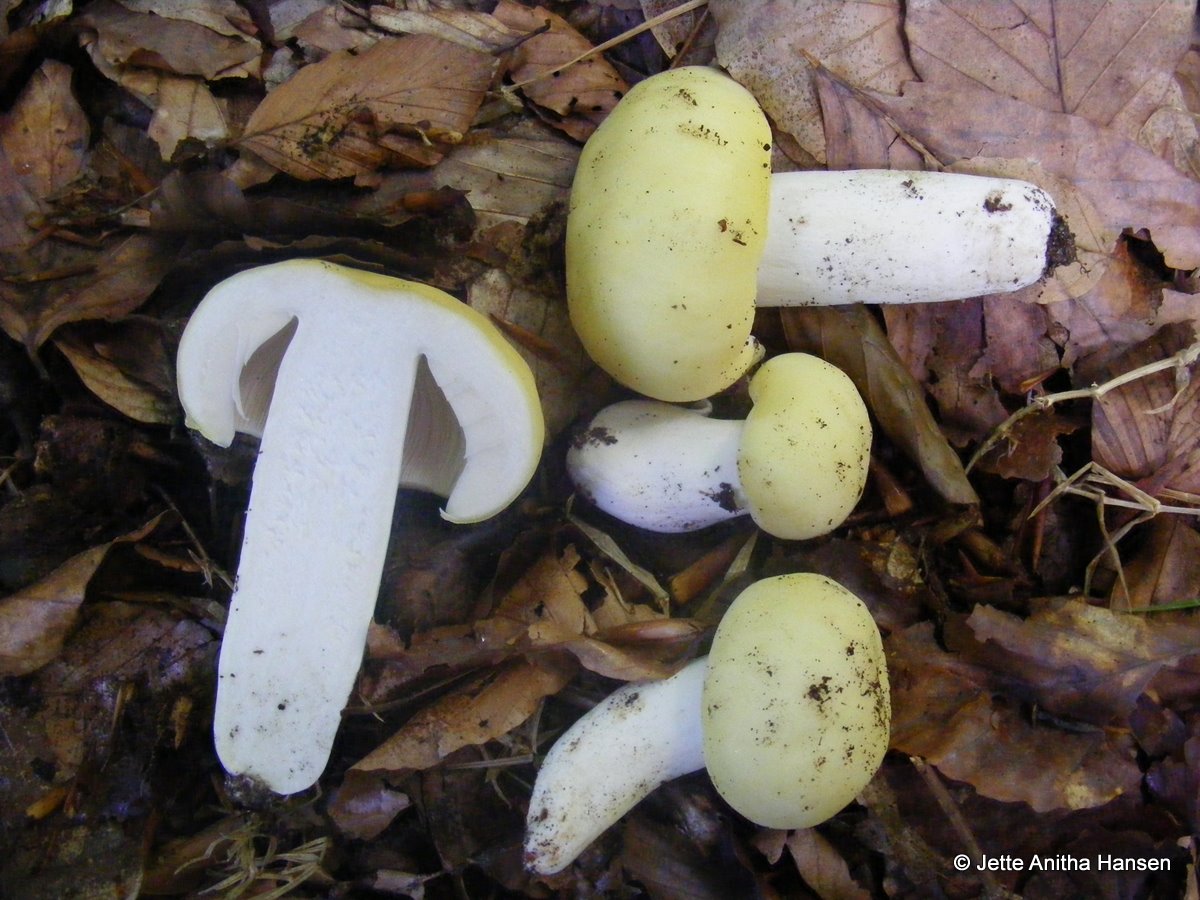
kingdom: Fungi
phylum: Basidiomycota
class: Agaricomycetes
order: Russulales
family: Russulaceae
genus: Russula
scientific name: Russula violeipes
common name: ferskengul skørhat
